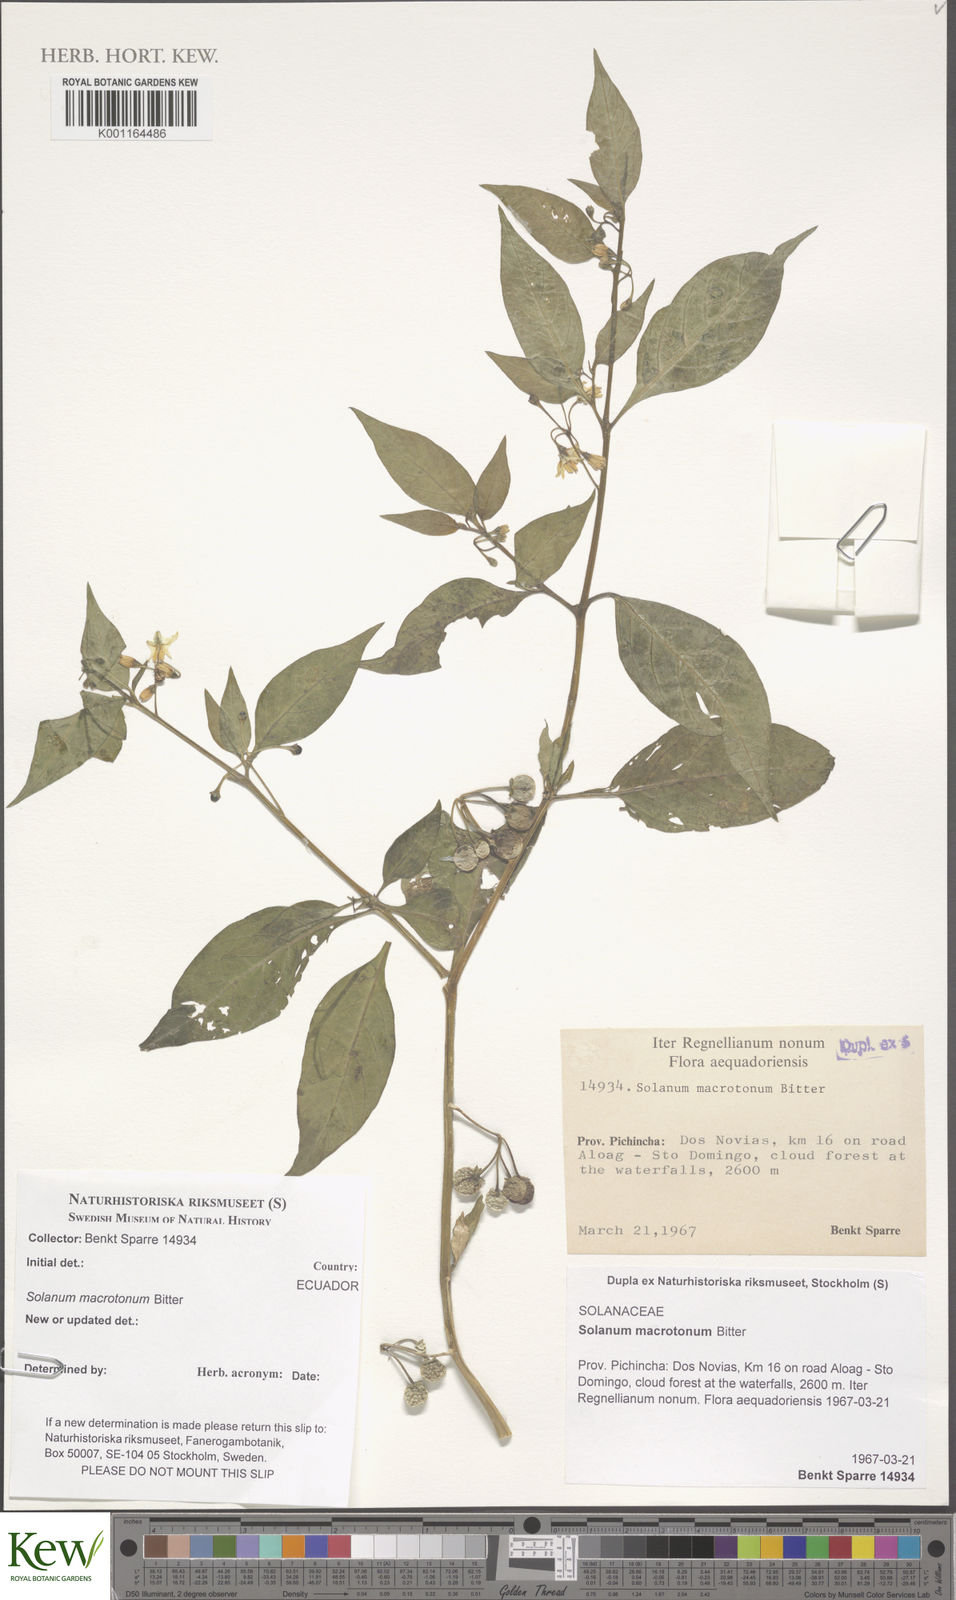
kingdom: Plantae
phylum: Tracheophyta
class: Magnoliopsida
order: Solanales
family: Solanaceae
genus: Solanum
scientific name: Solanum macrotonum
